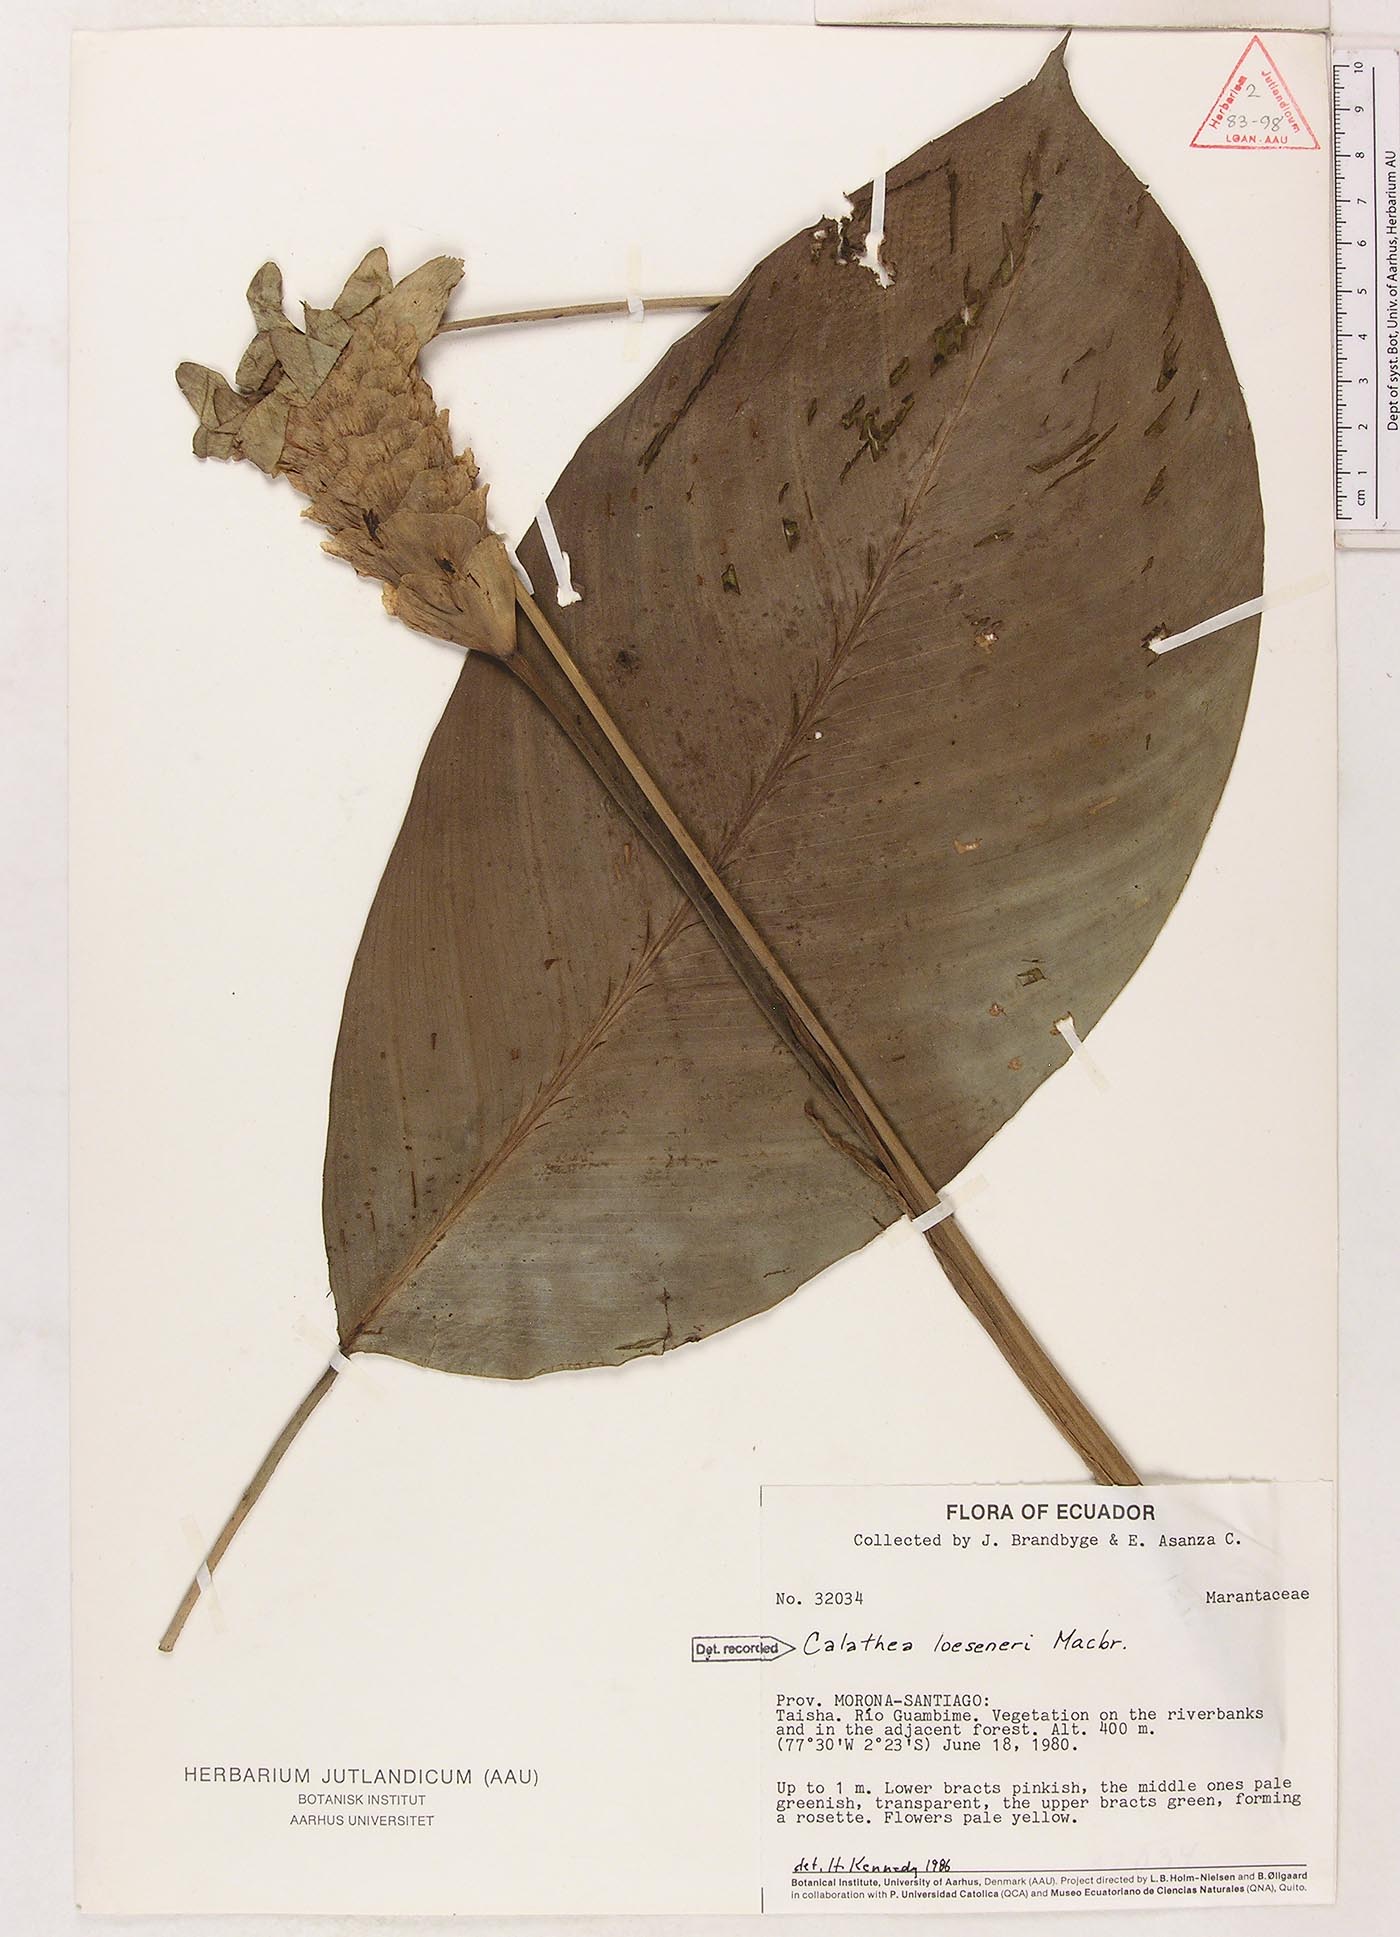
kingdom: Plantae
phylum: Tracheophyta
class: Liliopsida
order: Zingiberales
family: Marantaceae
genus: Goeppertia
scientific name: Goeppertia loeseneri
